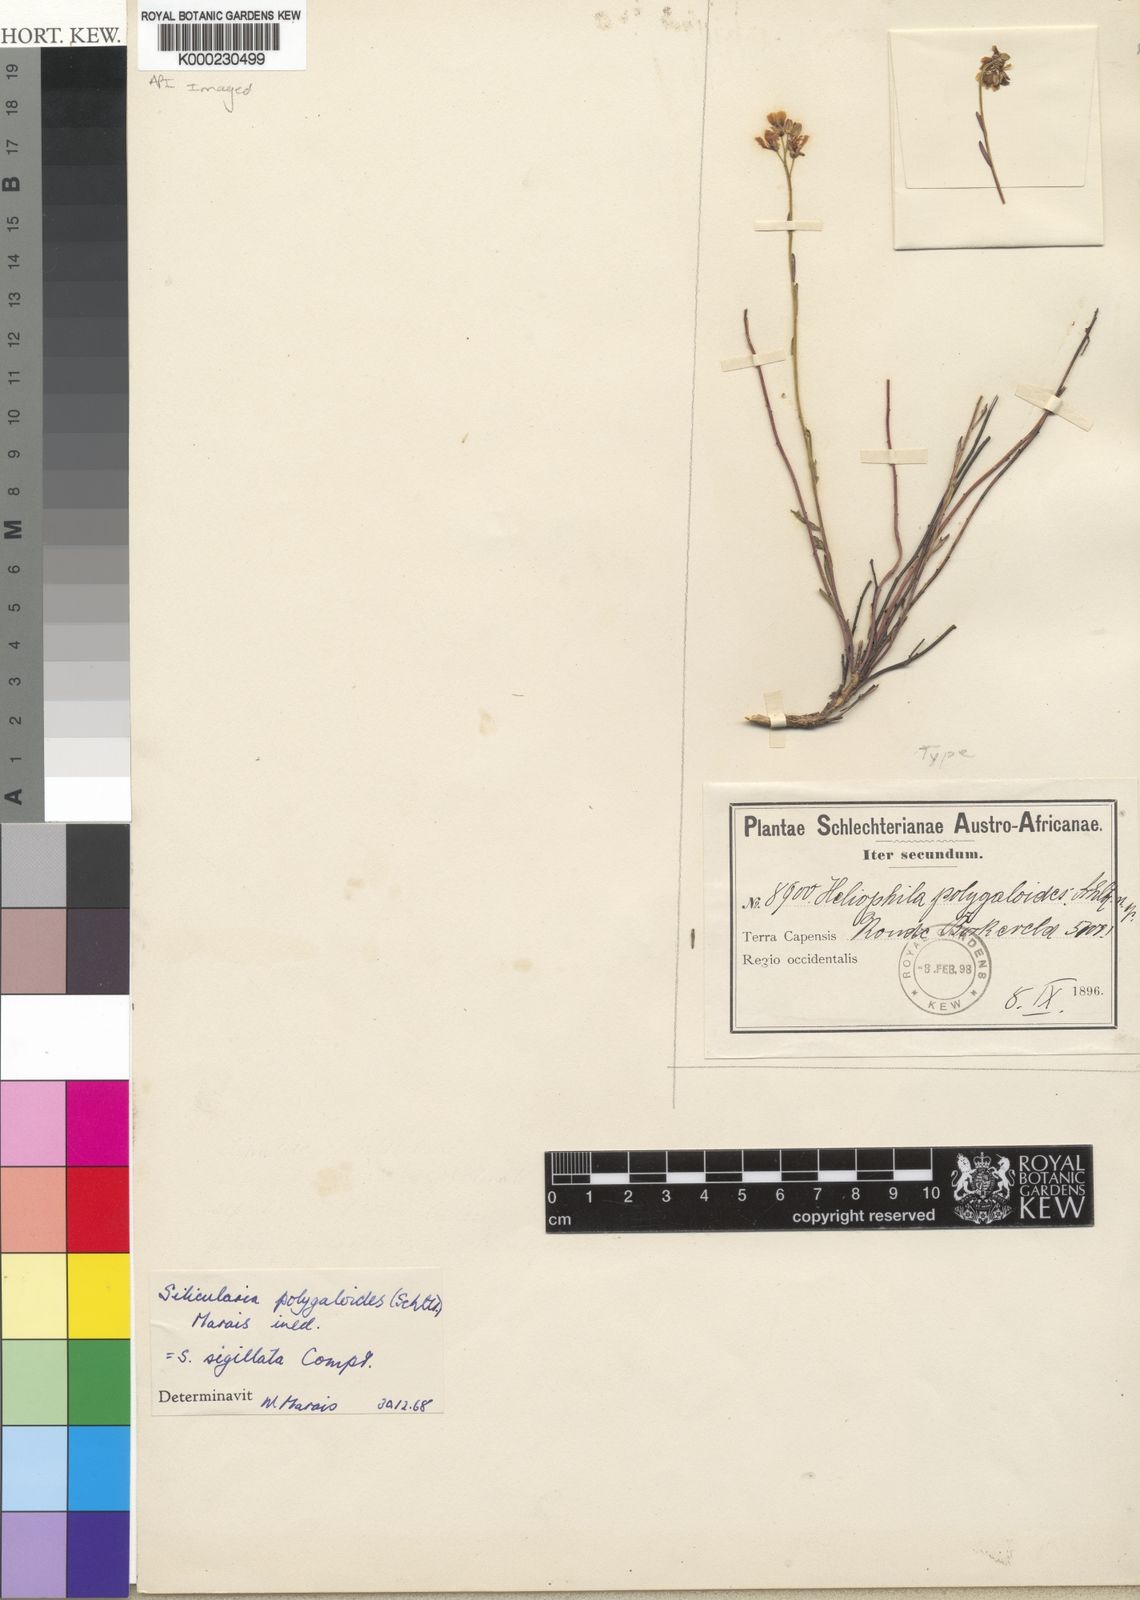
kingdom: Plantae
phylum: Tracheophyta
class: Magnoliopsida
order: Brassicales
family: Brassicaceae
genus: Heliophila
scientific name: Heliophila polygaloides
